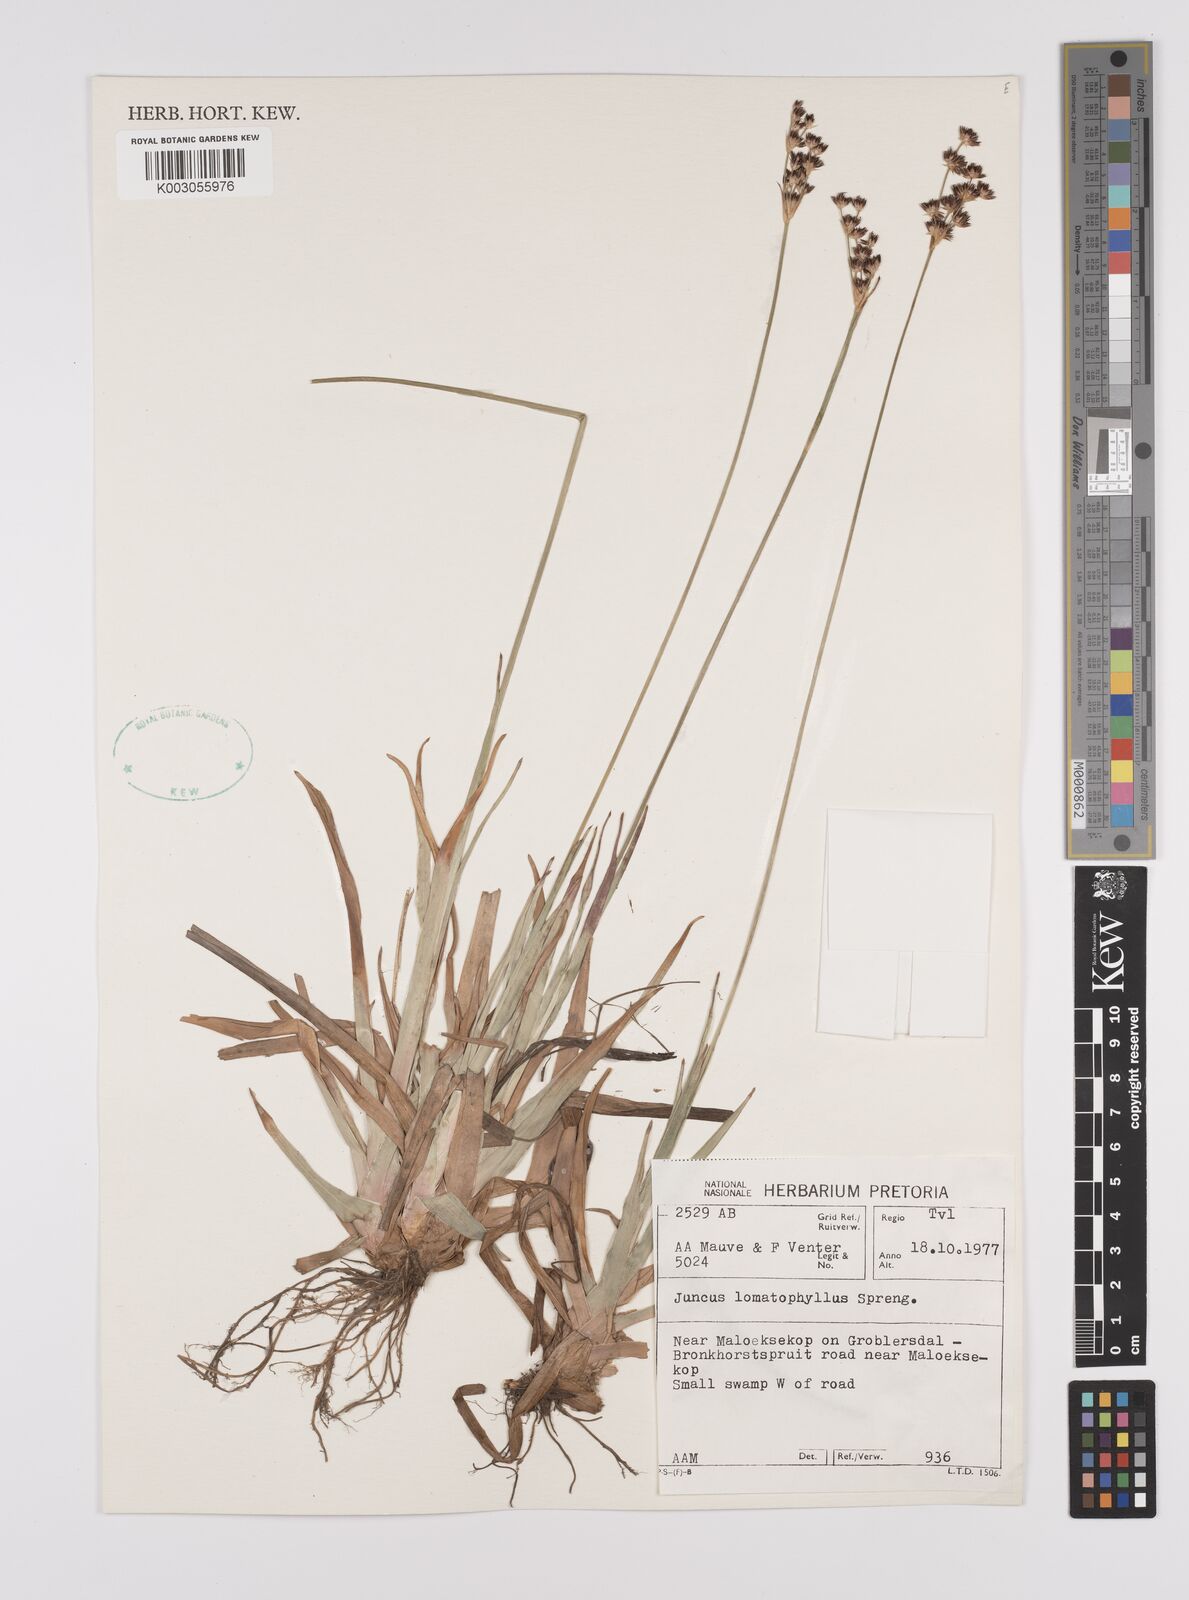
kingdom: Plantae
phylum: Tracheophyta
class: Liliopsida
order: Poales
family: Juncaceae
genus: Juncus
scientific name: Juncus lomatophyllus
